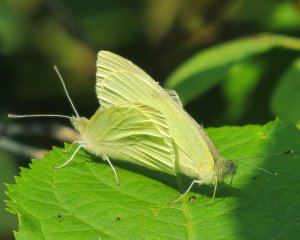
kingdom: Animalia
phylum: Arthropoda
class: Insecta
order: Lepidoptera
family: Pieridae
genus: Pieris
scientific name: Pieris rapae
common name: Cabbage White
